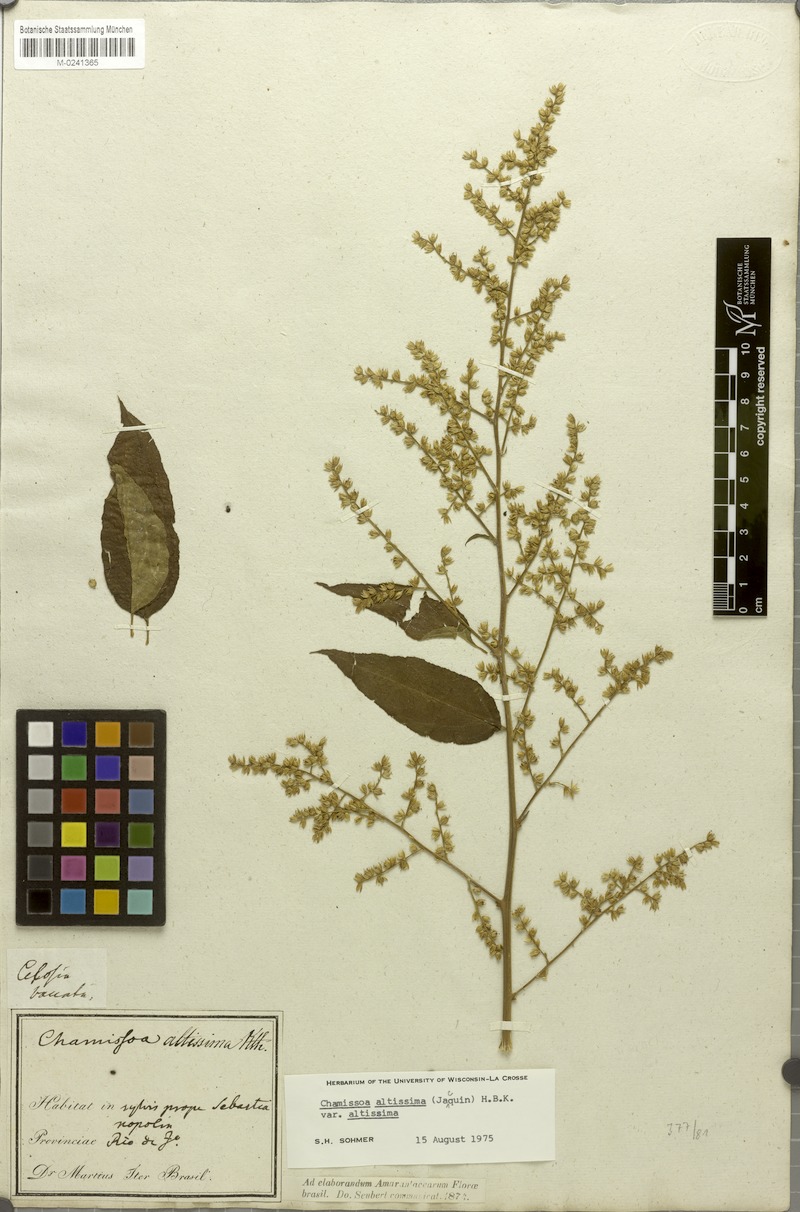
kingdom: Plantae
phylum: Tracheophyta
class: Magnoliopsida
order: Caryophyllales
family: Amaranthaceae
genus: Chamissoa
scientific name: Chamissoa altissima
